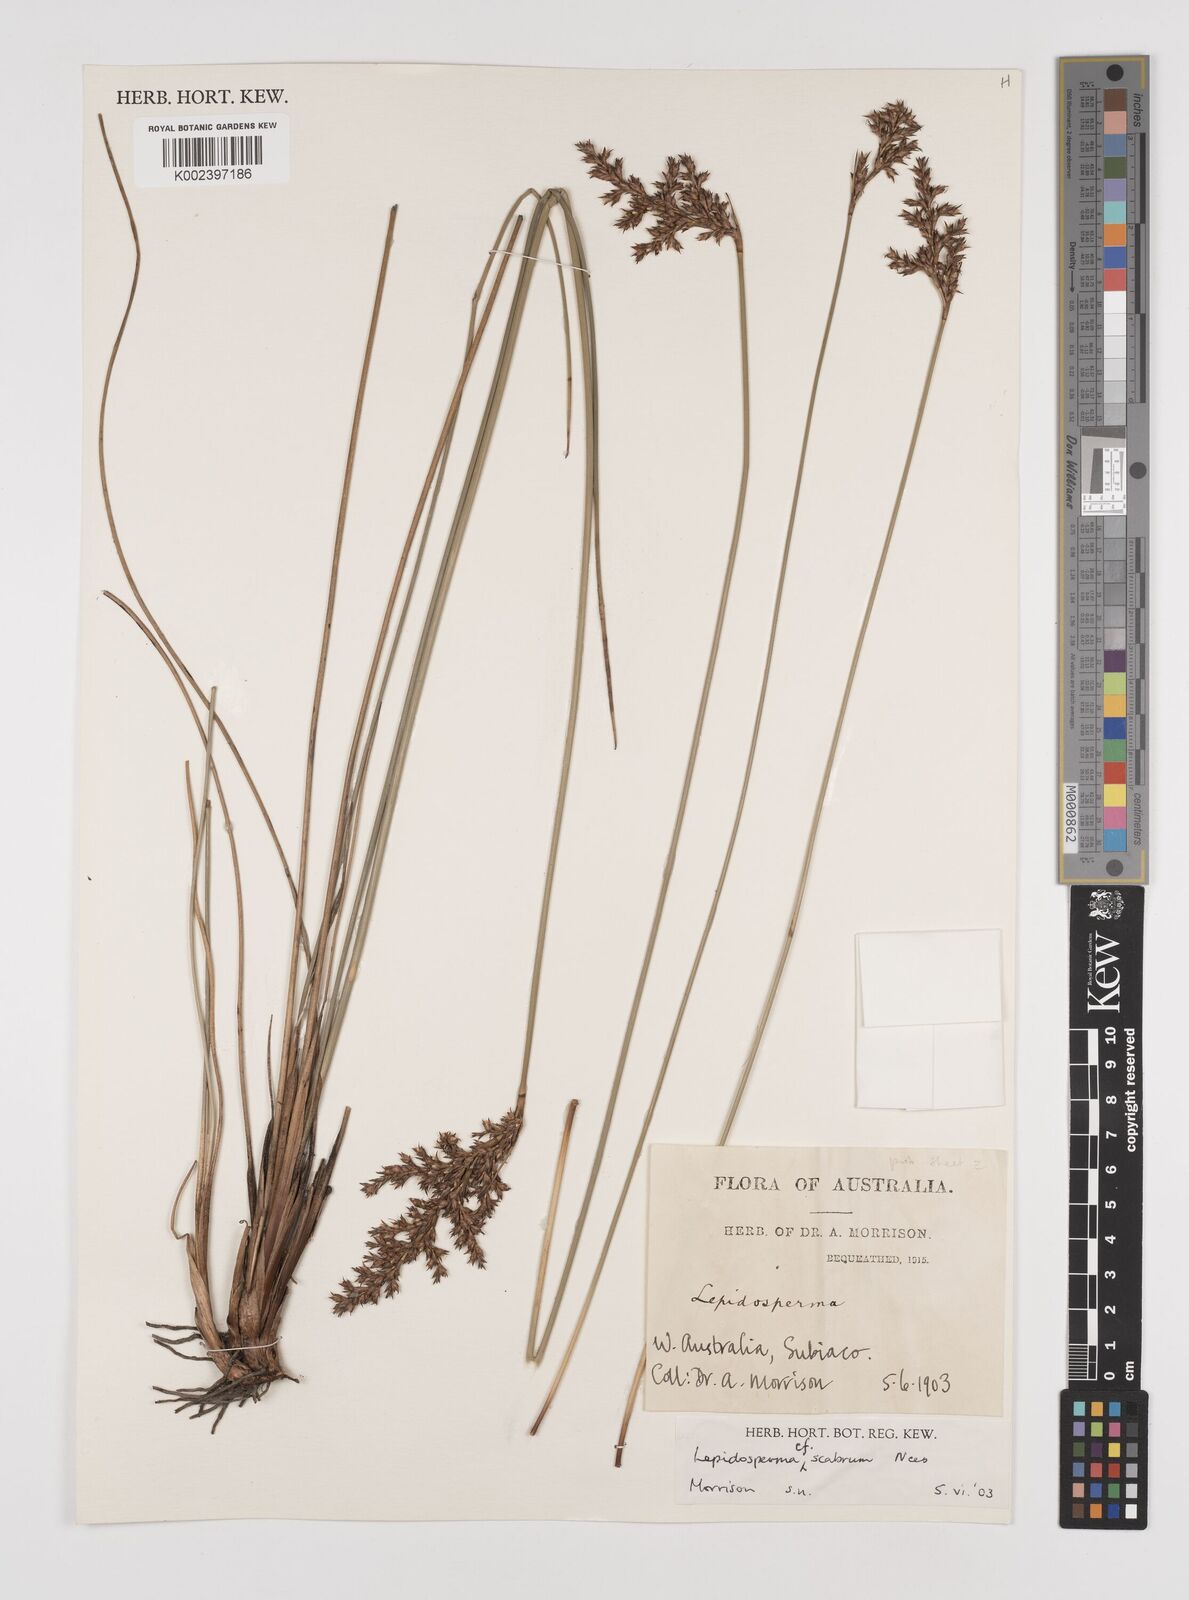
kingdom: Plantae
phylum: Tracheophyta
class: Liliopsida
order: Poales
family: Cyperaceae
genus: Lepidosperma
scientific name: Lepidosperma scabrum
